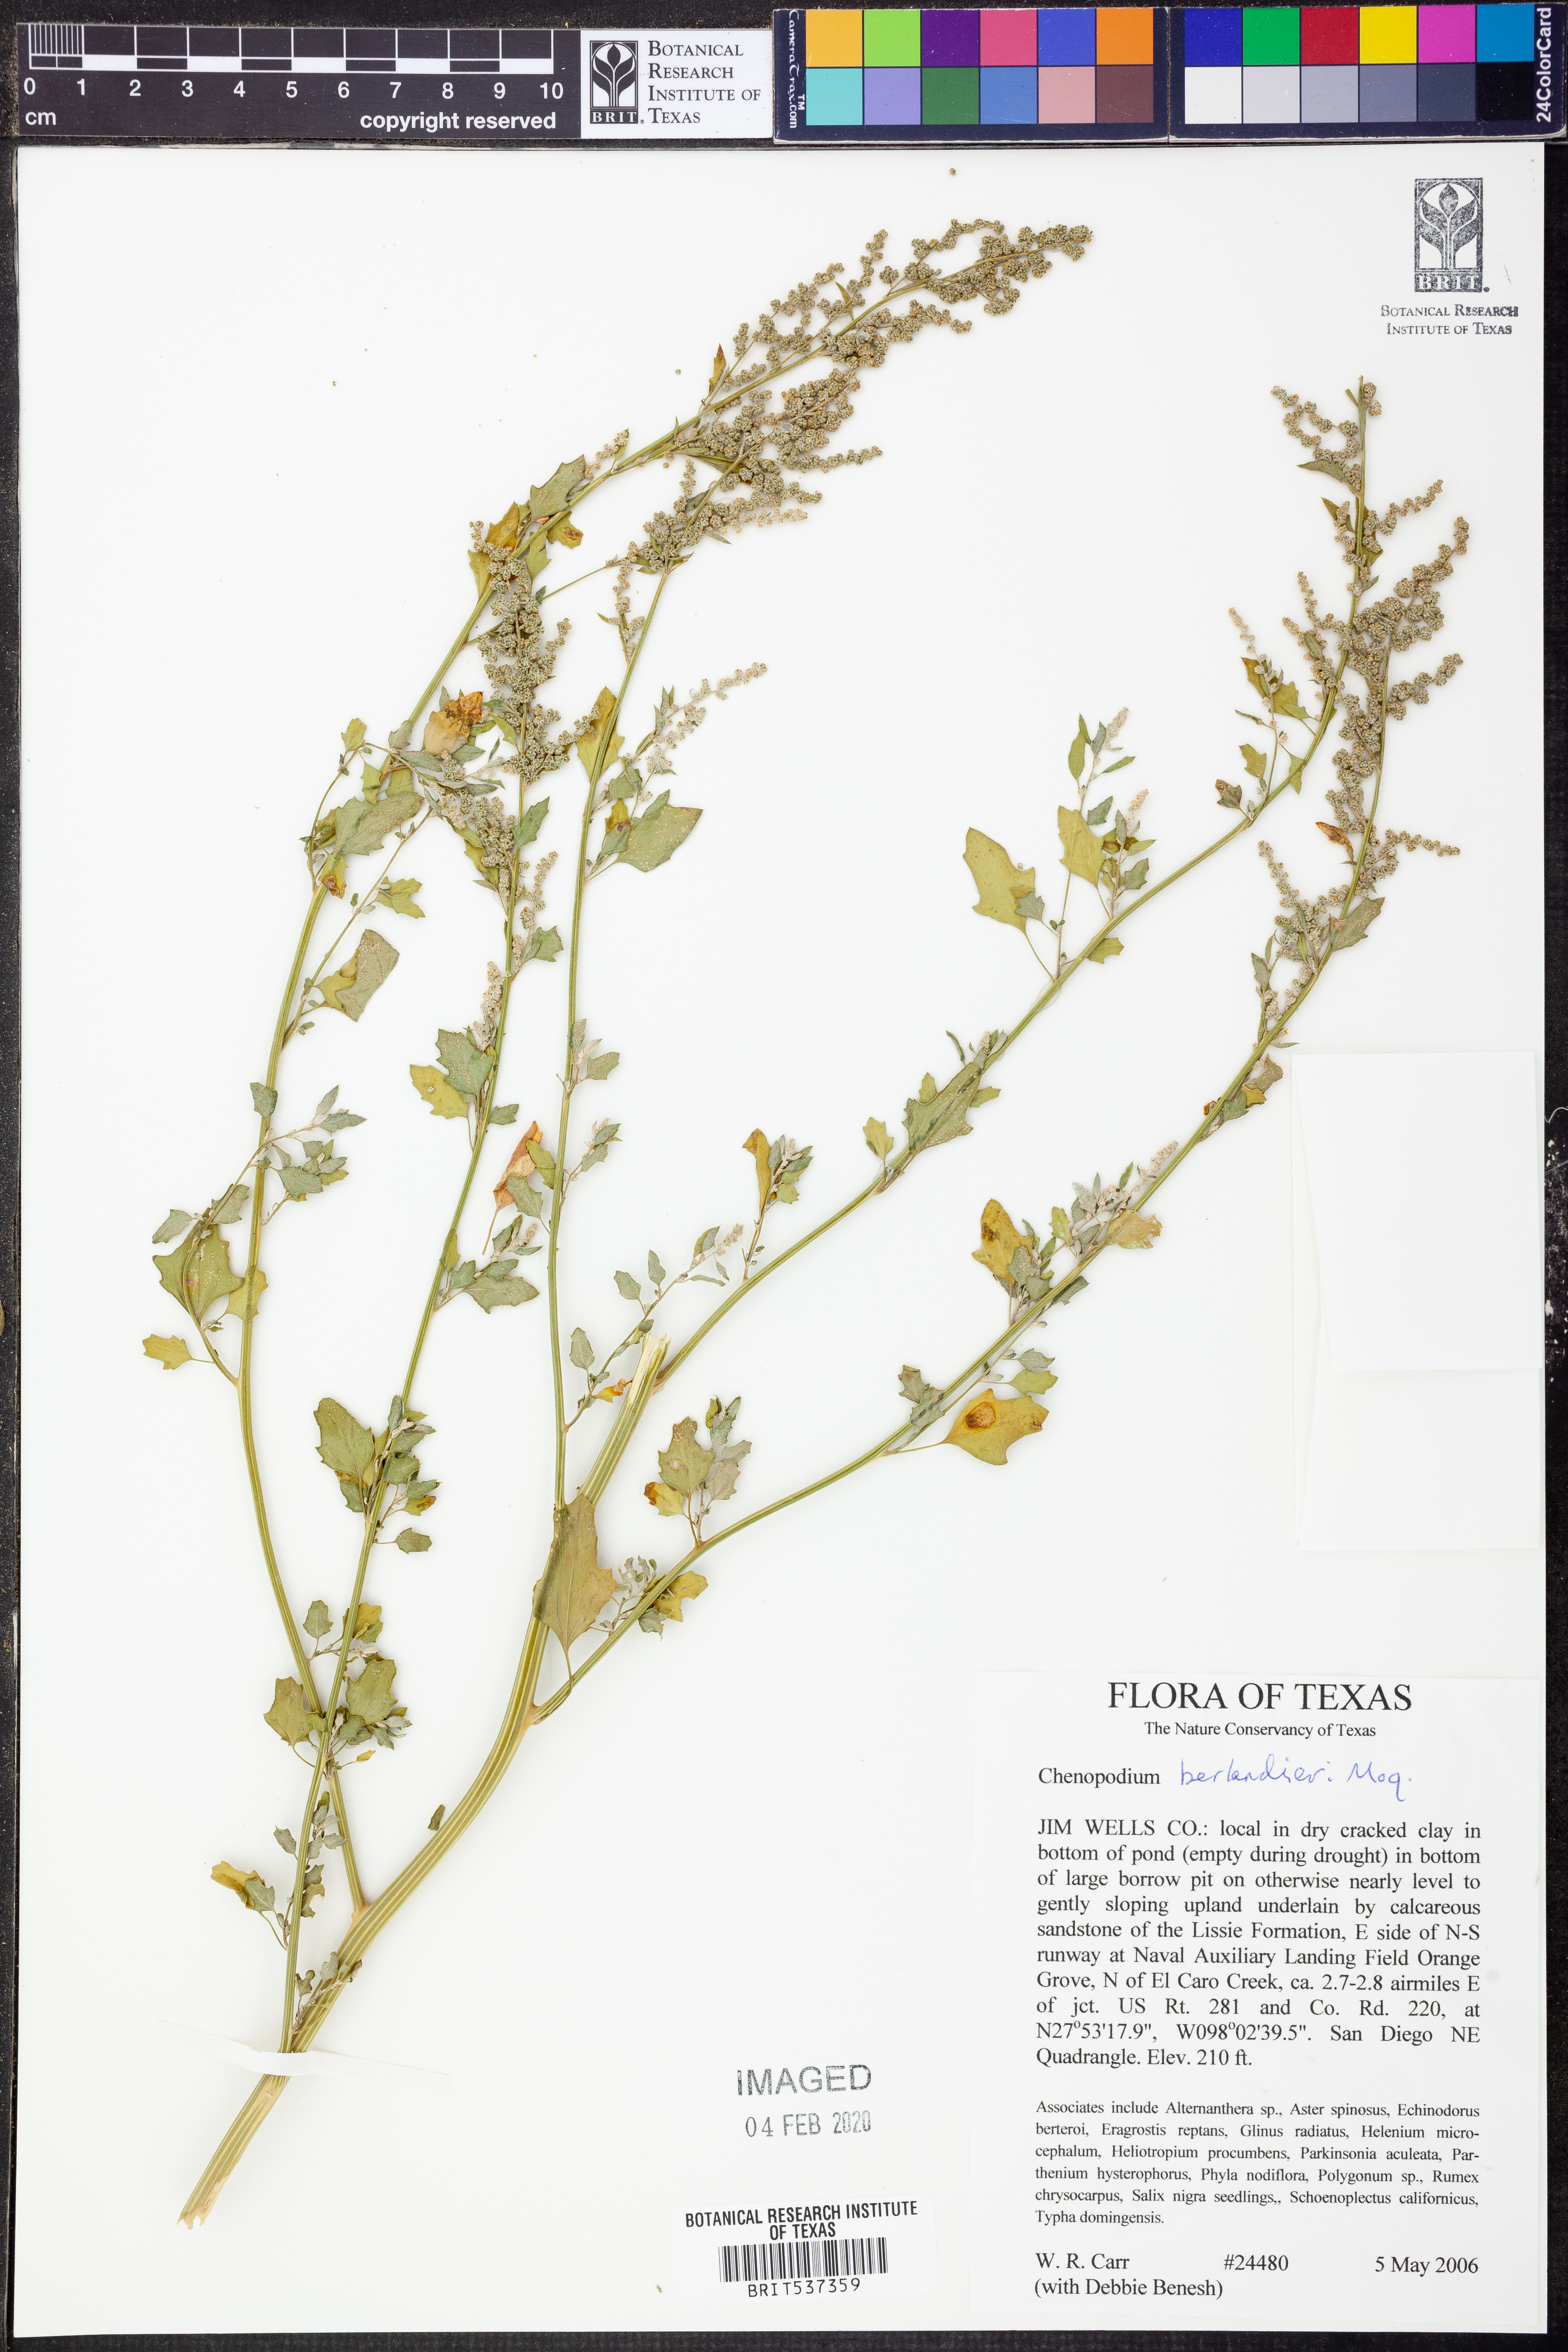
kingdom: Plantae
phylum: Tracheophyta
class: Magnoliopsida
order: Caryophyllales
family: Amaranthaceae
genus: Chenopodium
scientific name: Chenopodium berlandieri
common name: Pit-seed goosefoot
